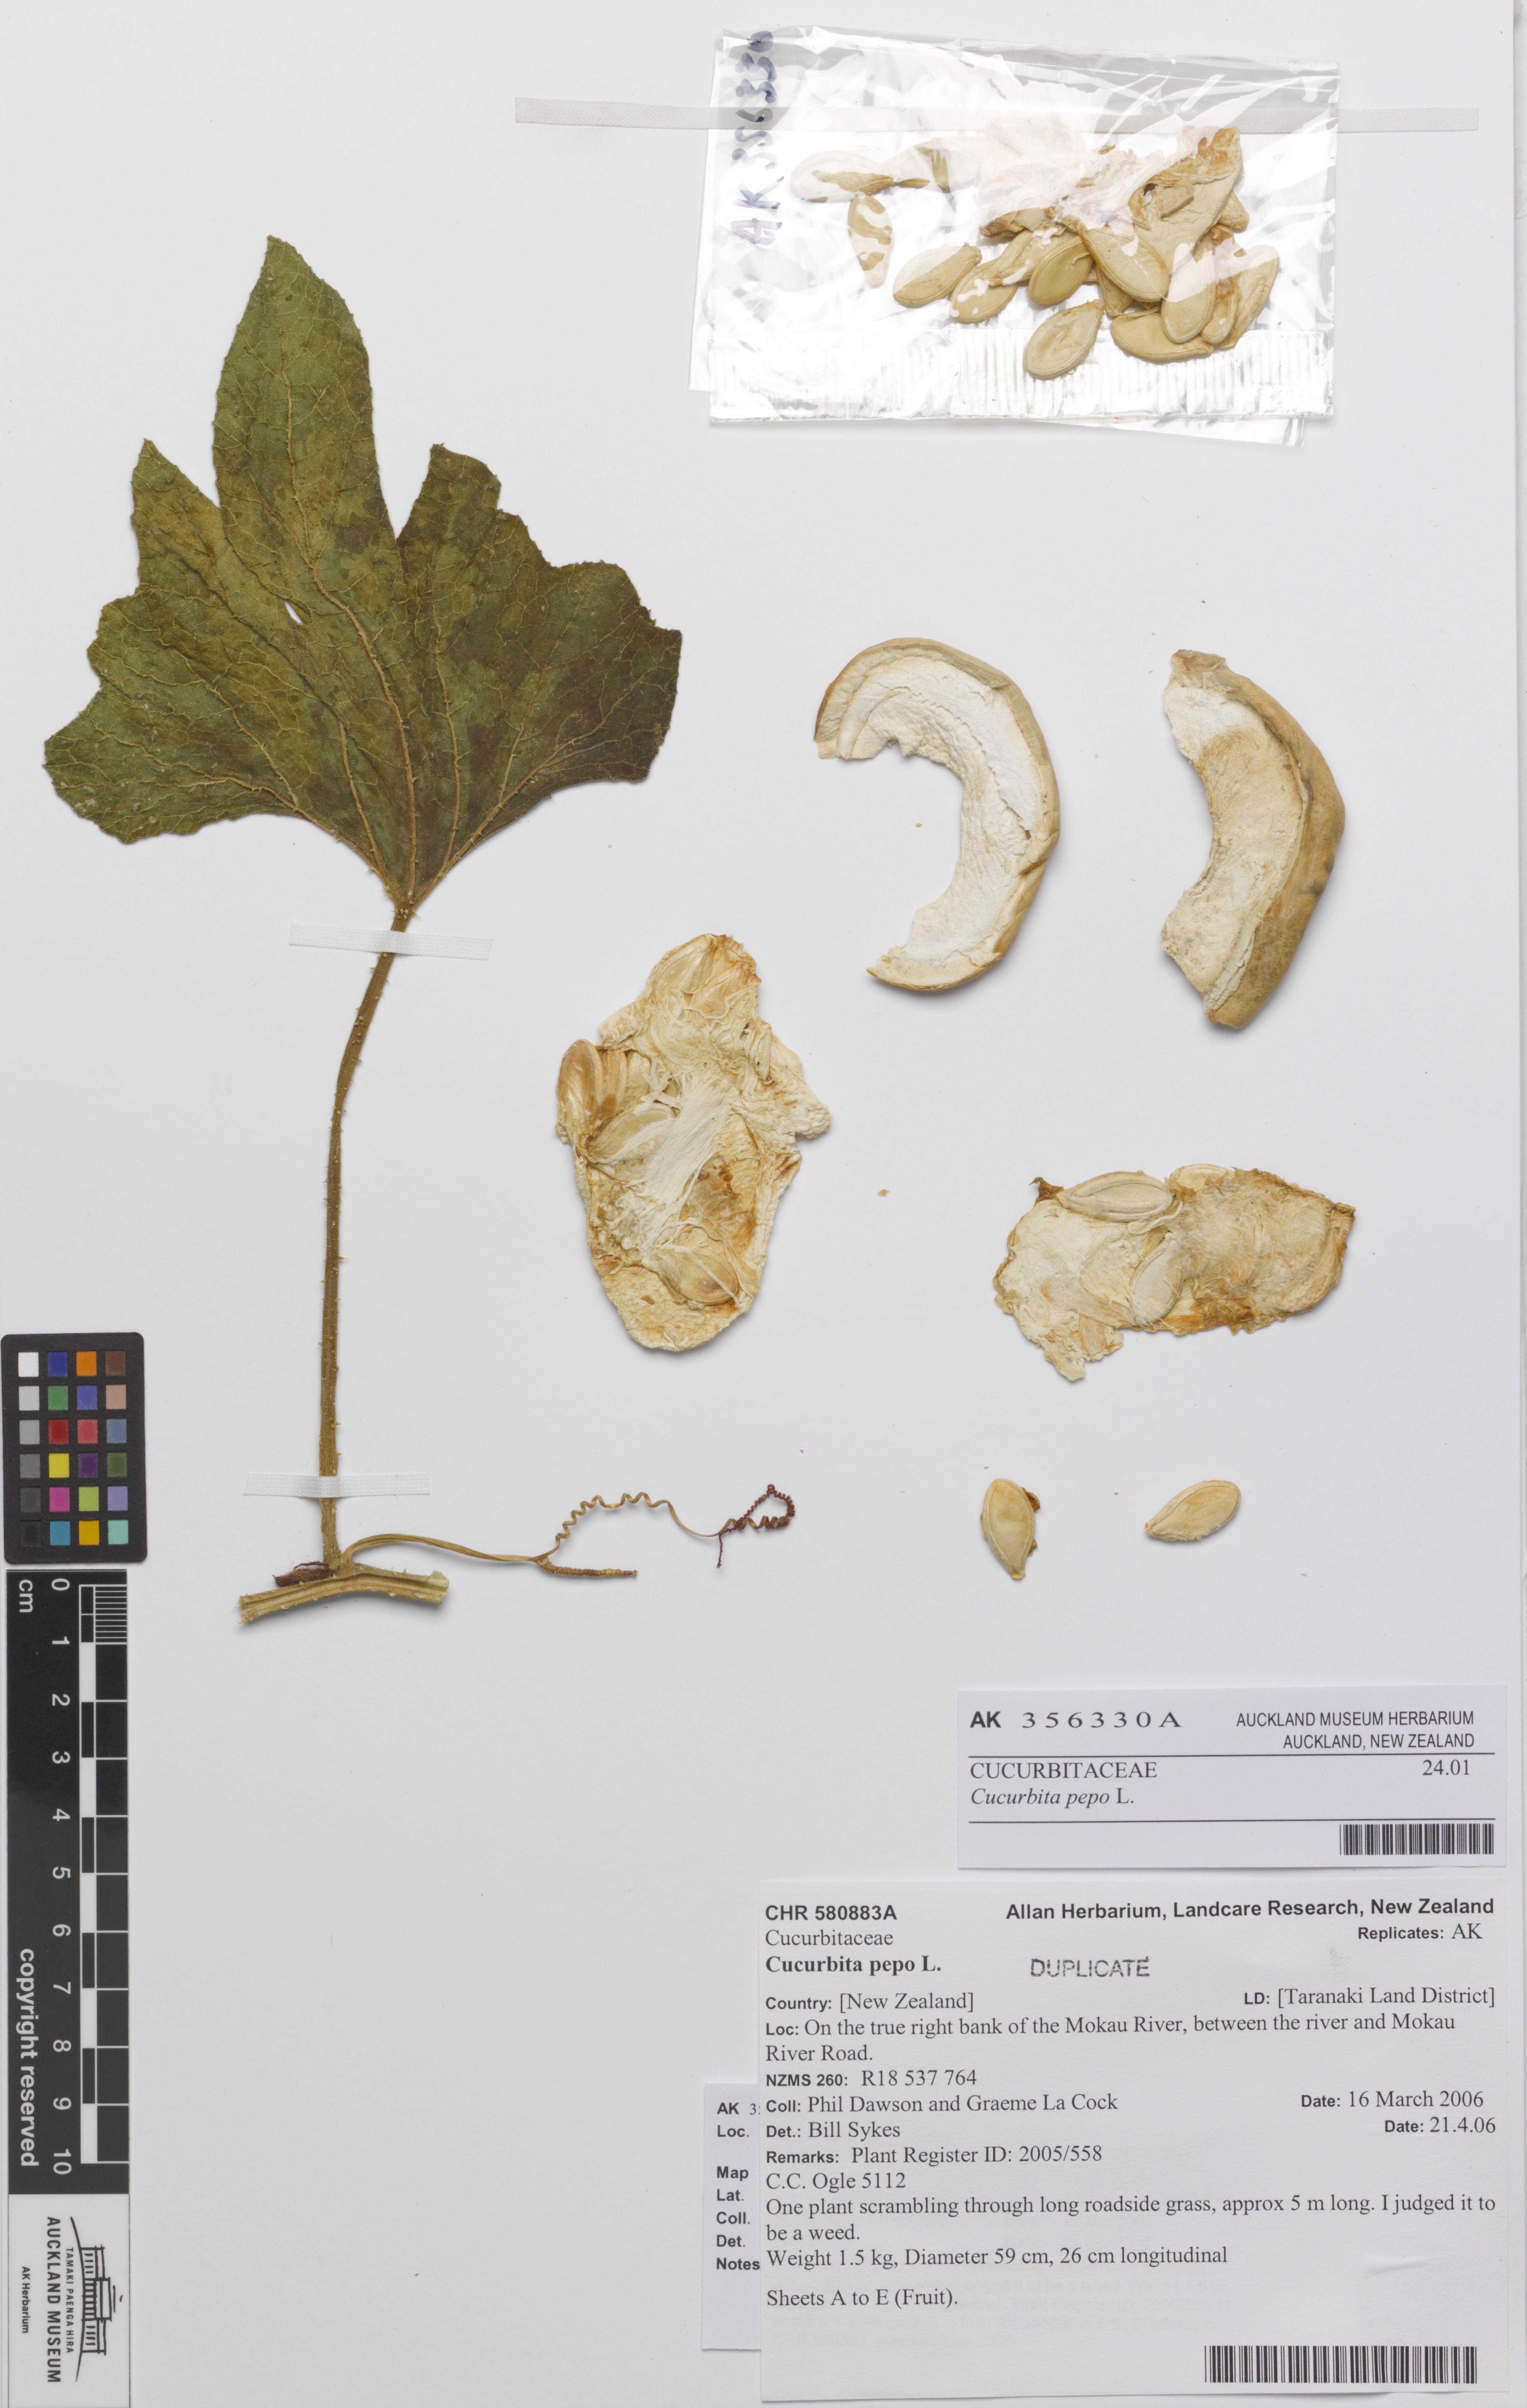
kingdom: Plantae
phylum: Tracheophyta
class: Magnoliopsida
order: Cucurbitales
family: Cucurbitaceae
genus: Cucurbita
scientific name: Cucurbita pepo
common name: Marrow
